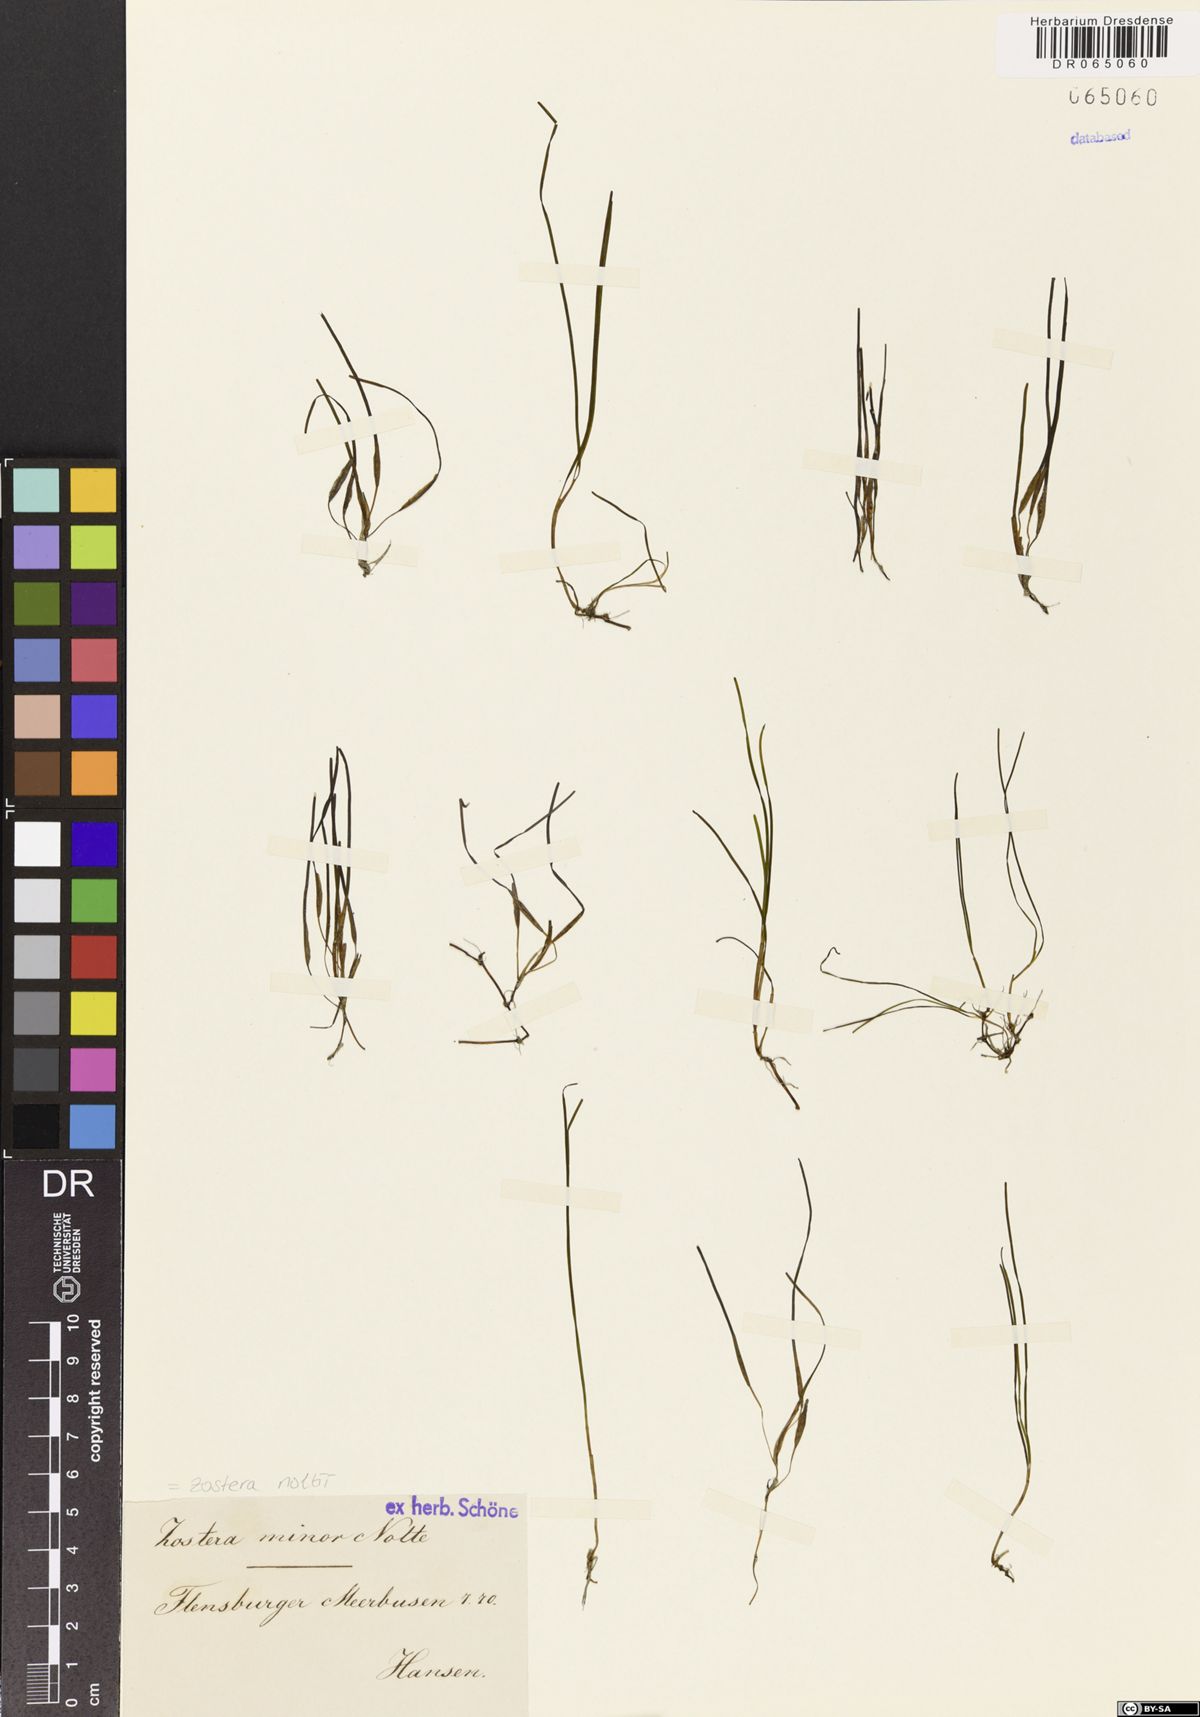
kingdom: Plantae
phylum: Tracheophyta
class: Liliopsida
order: Alismatales
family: Zosteraceae
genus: Zostera
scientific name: Zostera noltii
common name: Dwarf eelgrass
